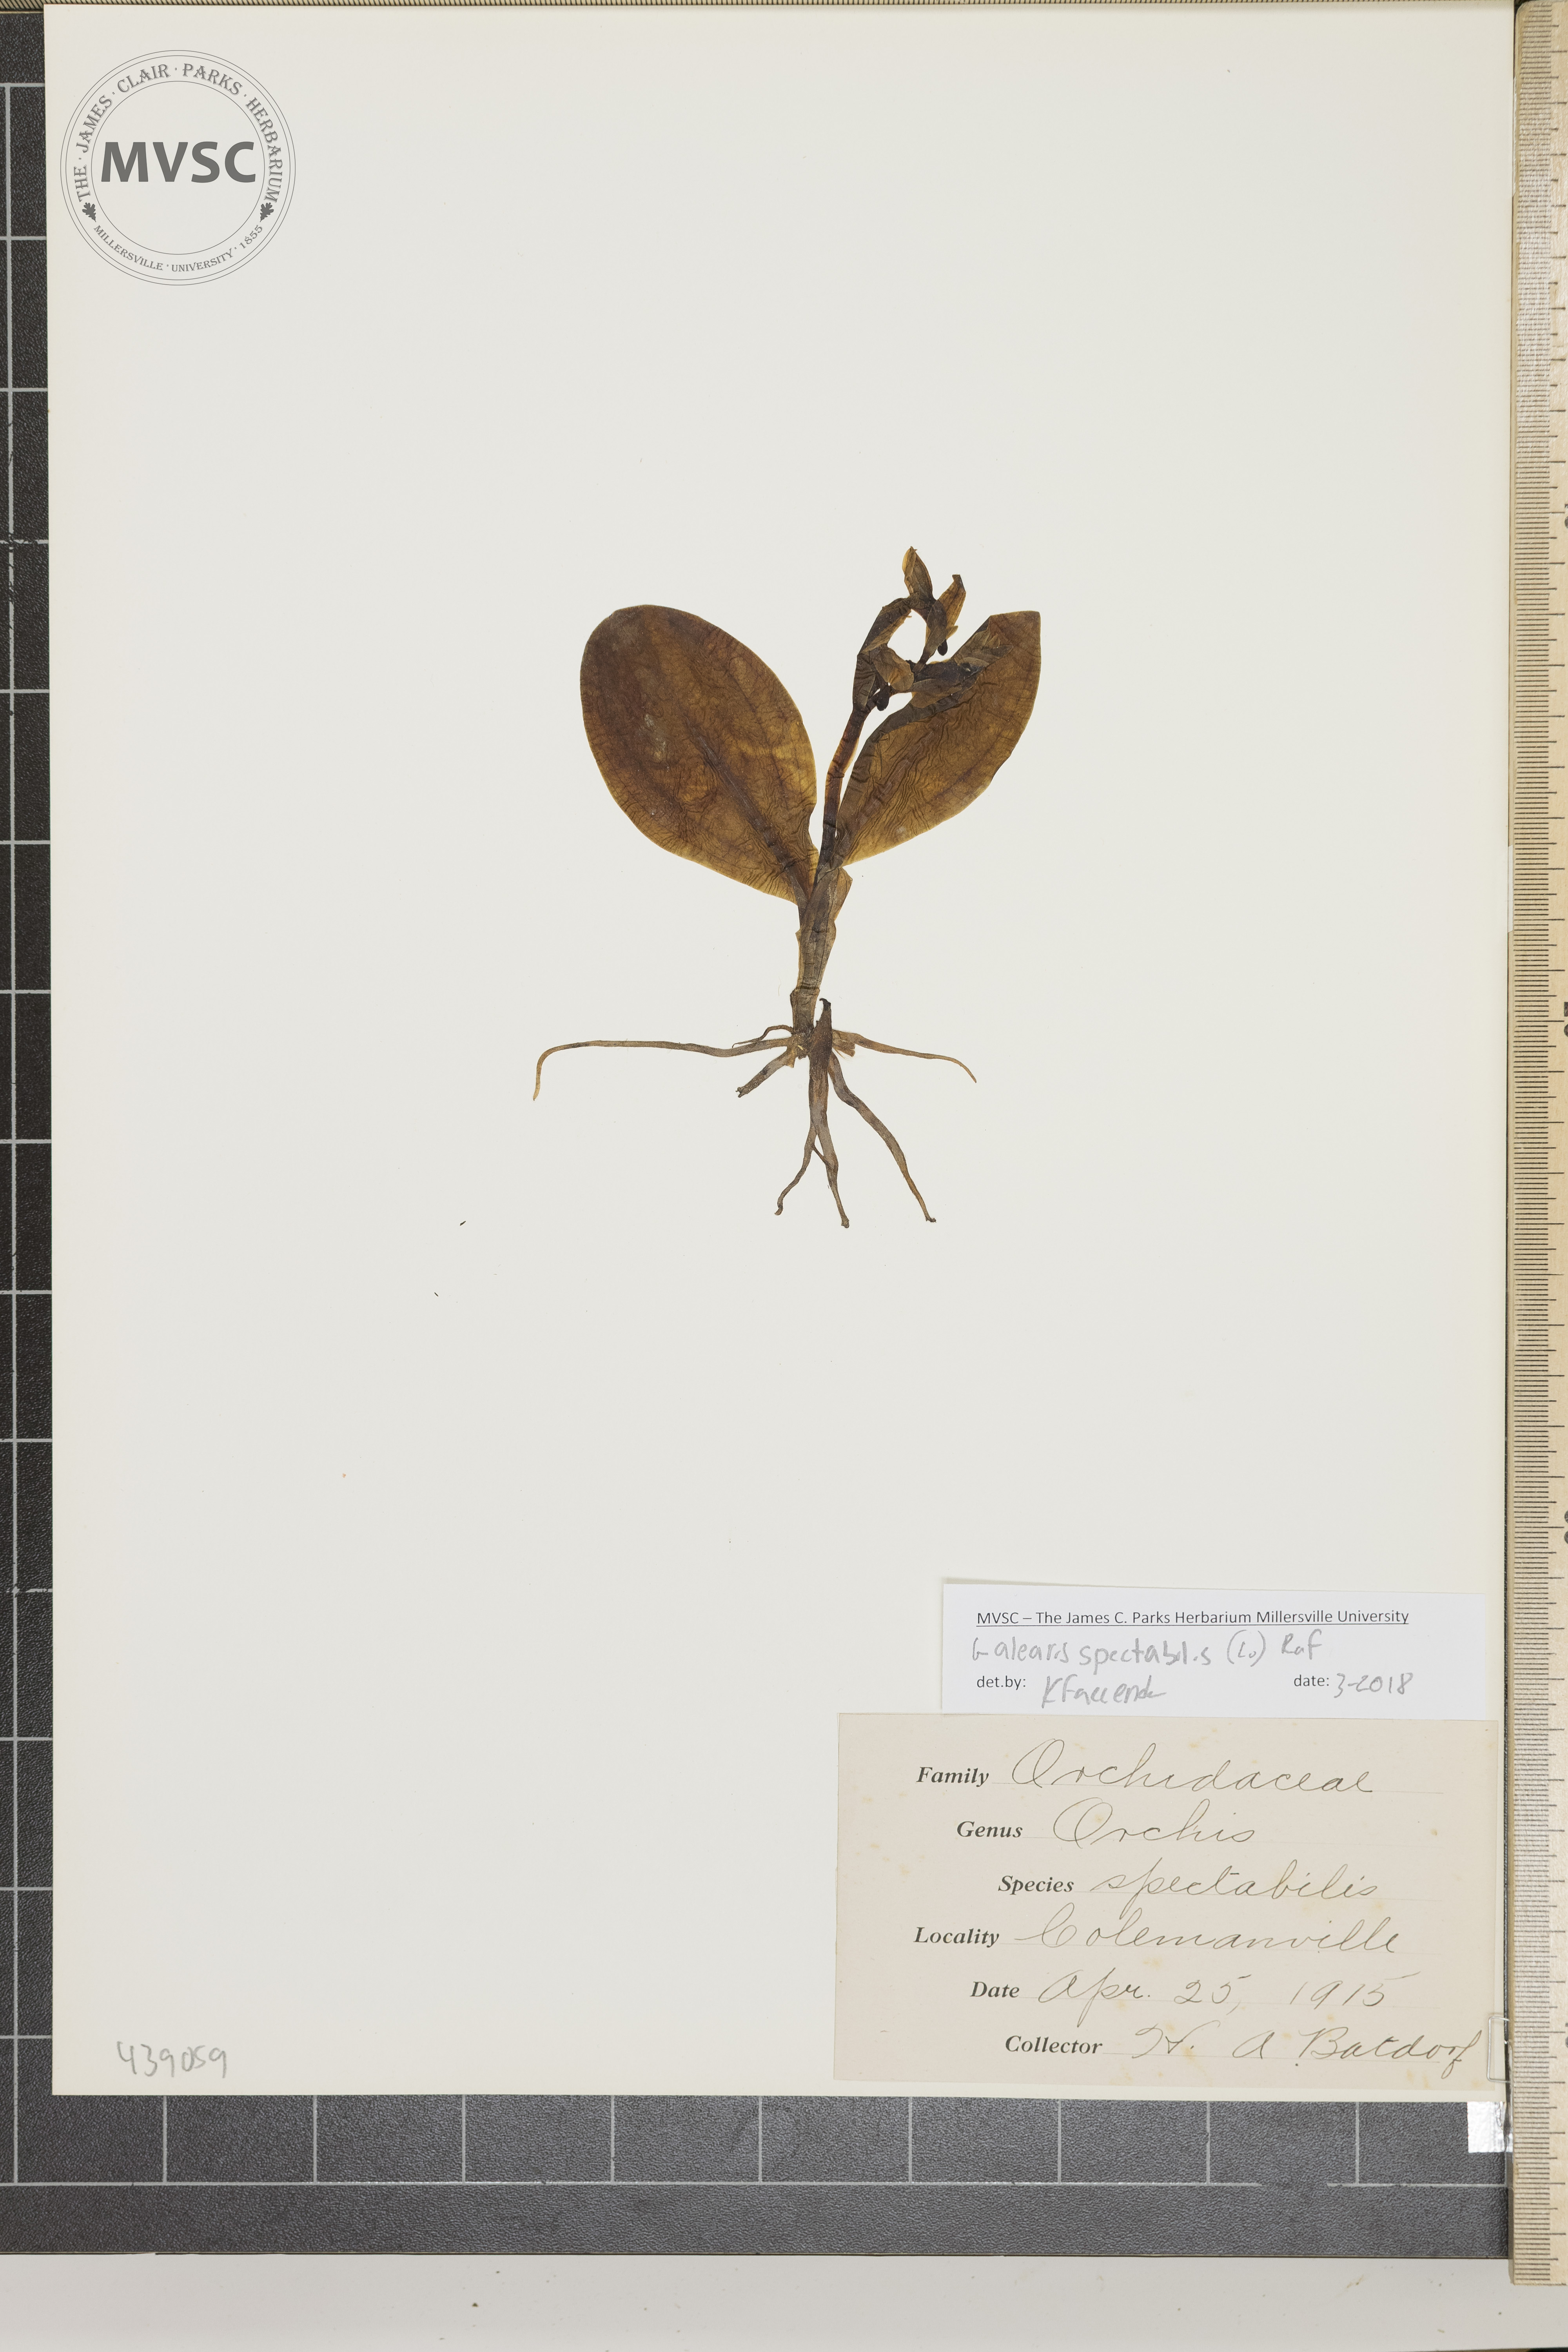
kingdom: Plantae
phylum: Tracheophyta
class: Liliopsida
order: Asparagales
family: Orchidaceae
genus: Galearis
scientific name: Galearis spectabilis
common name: Purple-hooded orchis
